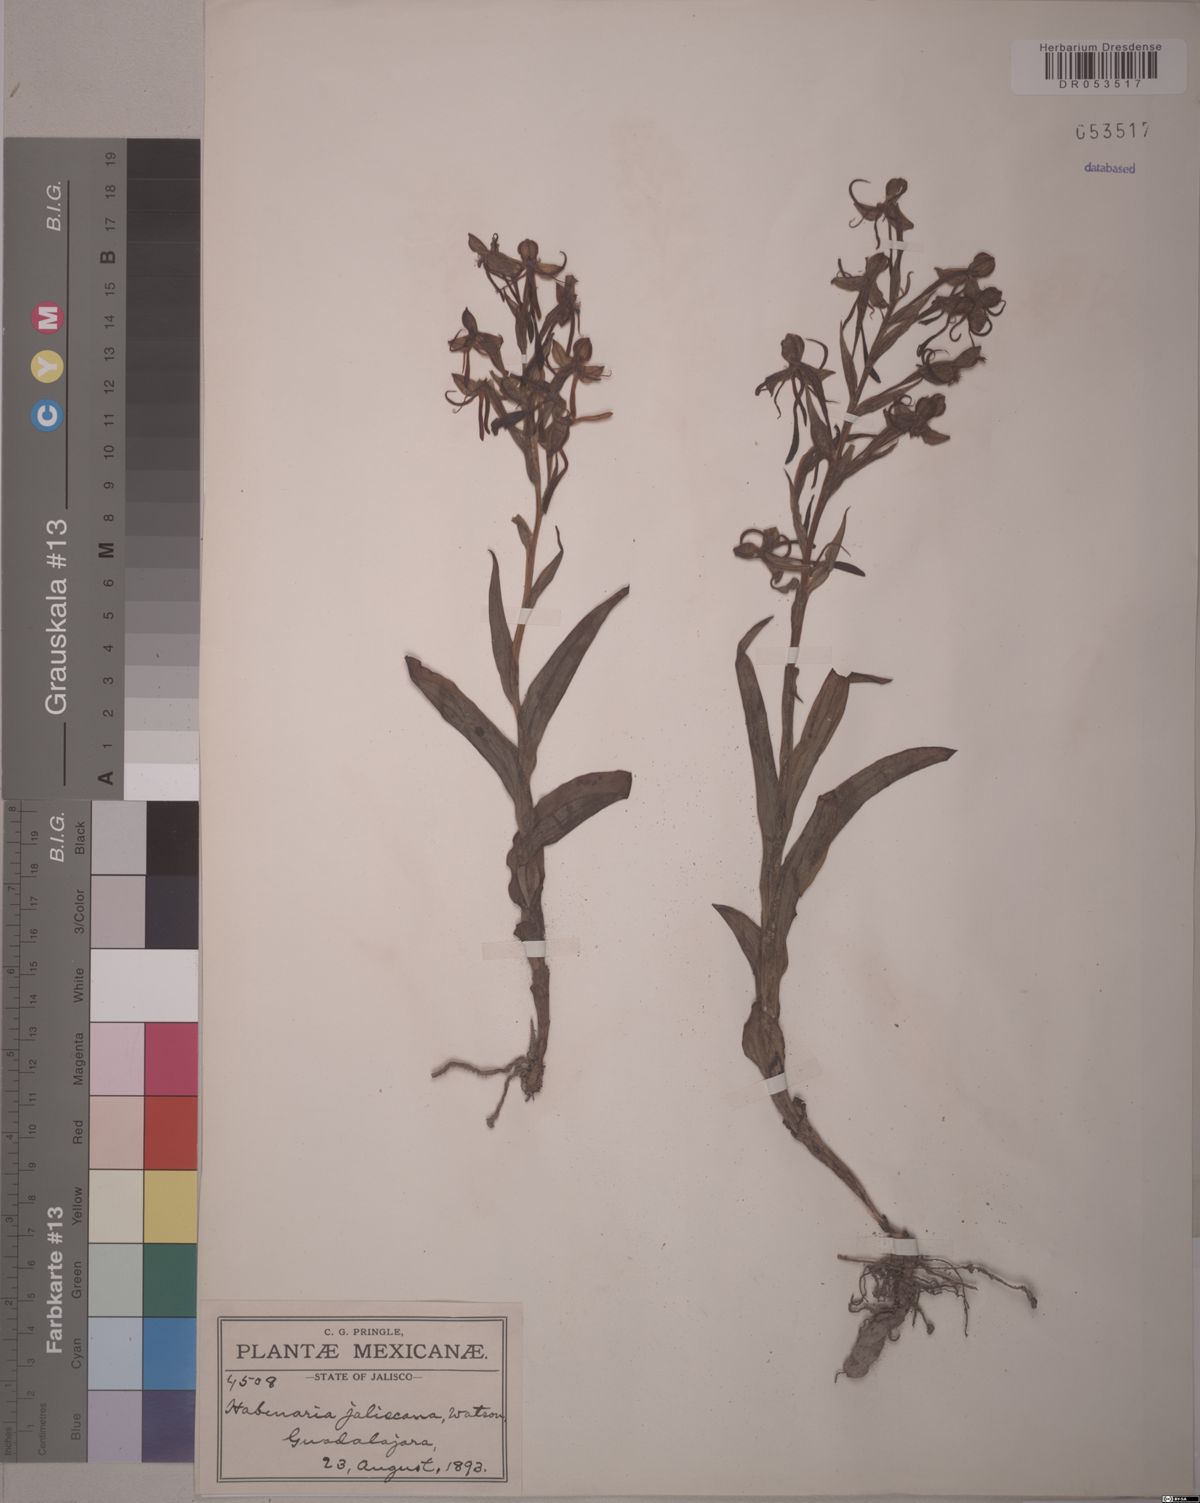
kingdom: Plantae
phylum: Tracheophyta
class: Liliopsida
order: Asparagales
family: Orchidaceae
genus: Habenaria
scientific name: Habenaria jaliscana
